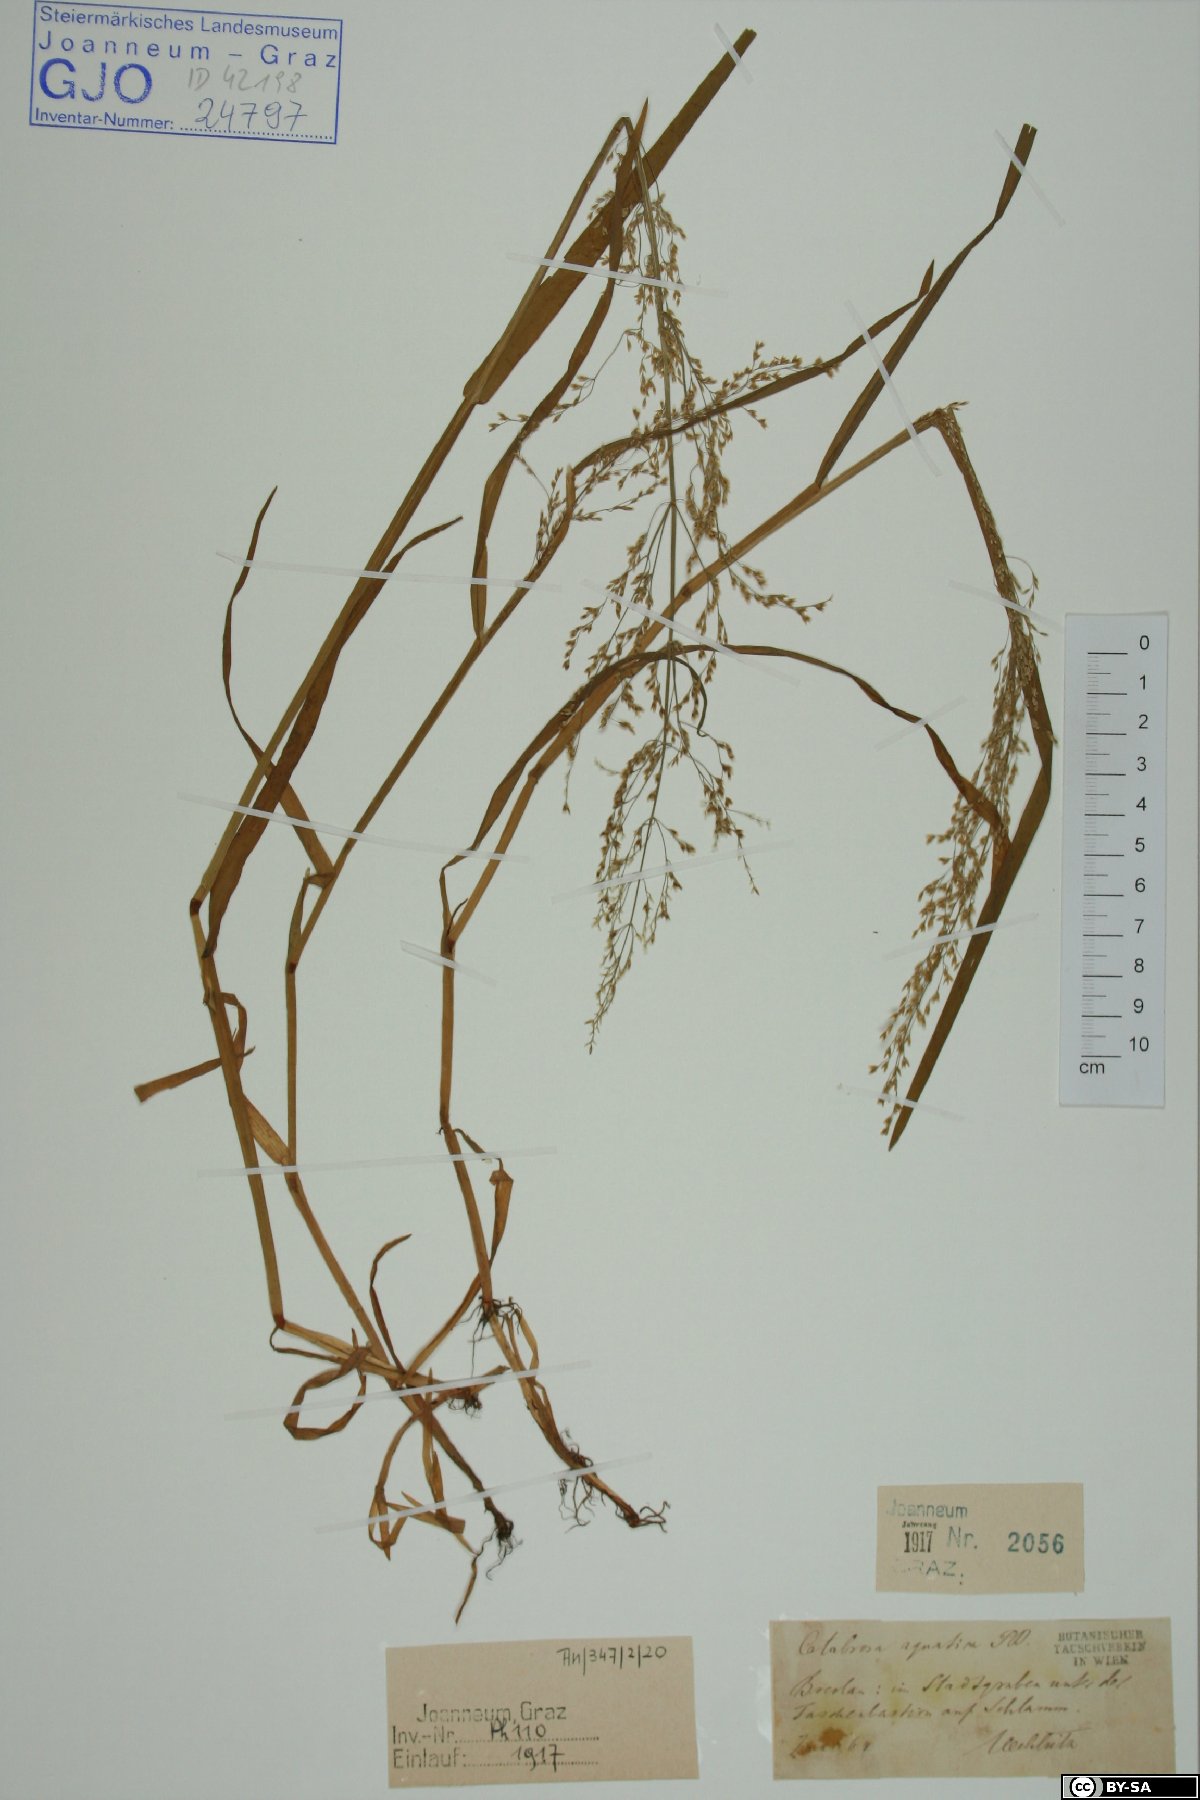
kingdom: Plantae
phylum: Tracheophyta
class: Liliopsida
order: Poales
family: Poaceae
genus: Catabrosa
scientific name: Catabrosa aquatica
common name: Whorl-grass
